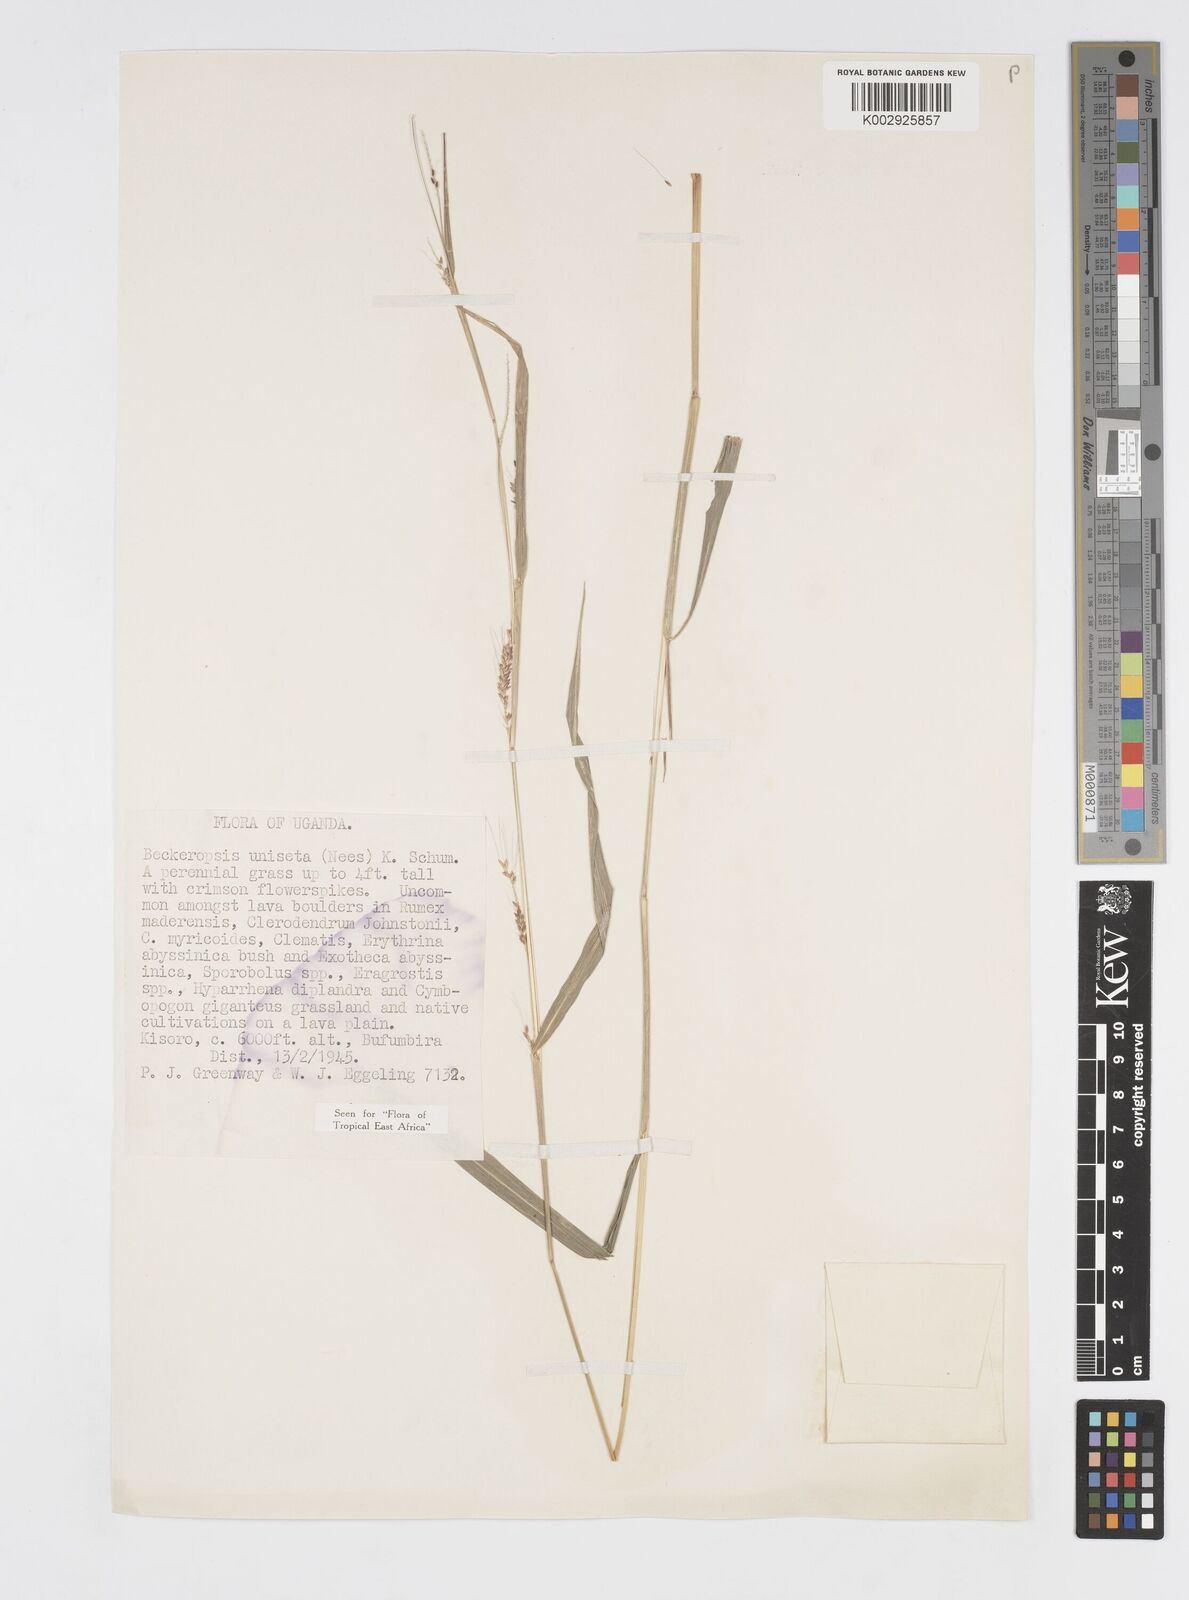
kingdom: Plantae
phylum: Tracheophyta
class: Liliopsida
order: Poales
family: Poaceae
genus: Cenchrus
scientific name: Cenchrus unisetus
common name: Natal grass
